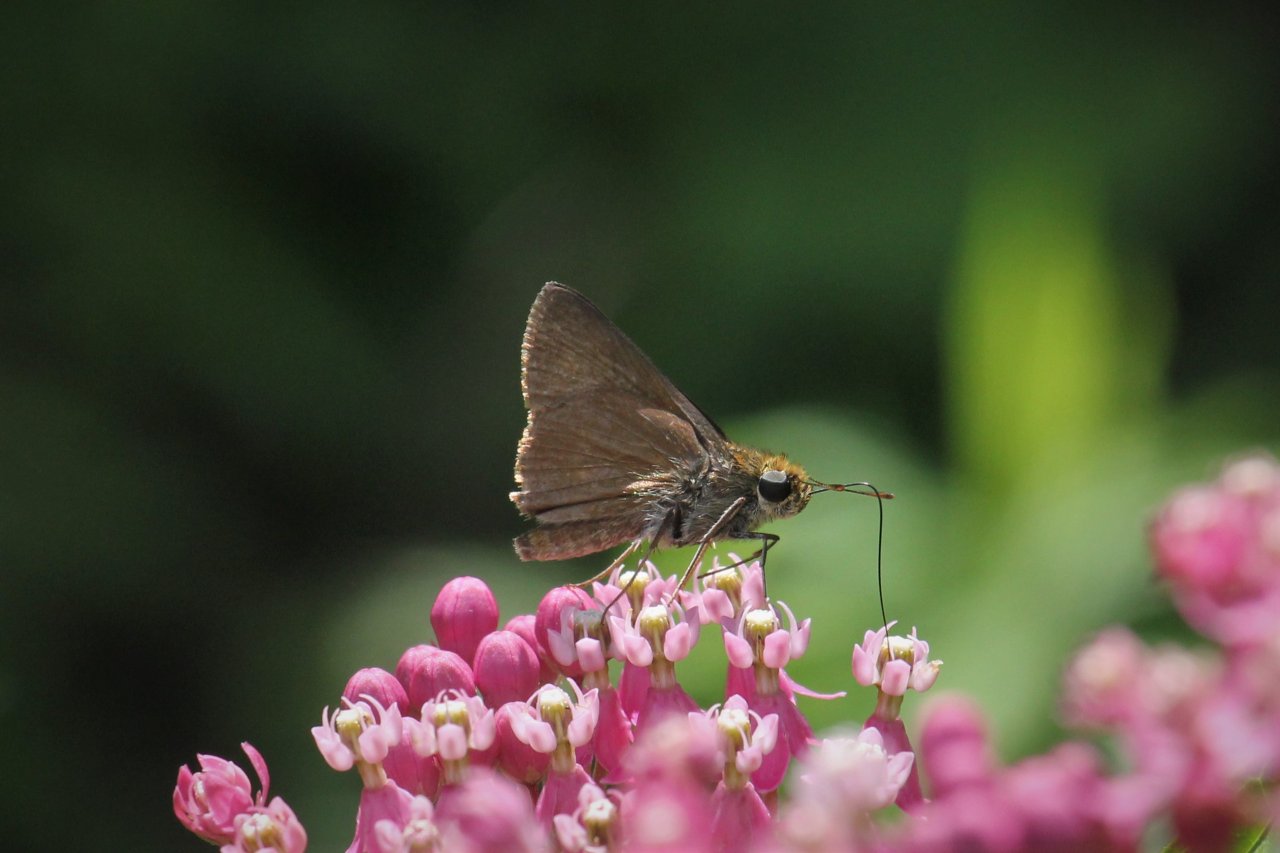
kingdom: Animalia
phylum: Arthropoda
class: Insecta
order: Lepidoptera
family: Hesperiidae
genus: Euphyes
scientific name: Euphyes vestris
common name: Dun Skipper
